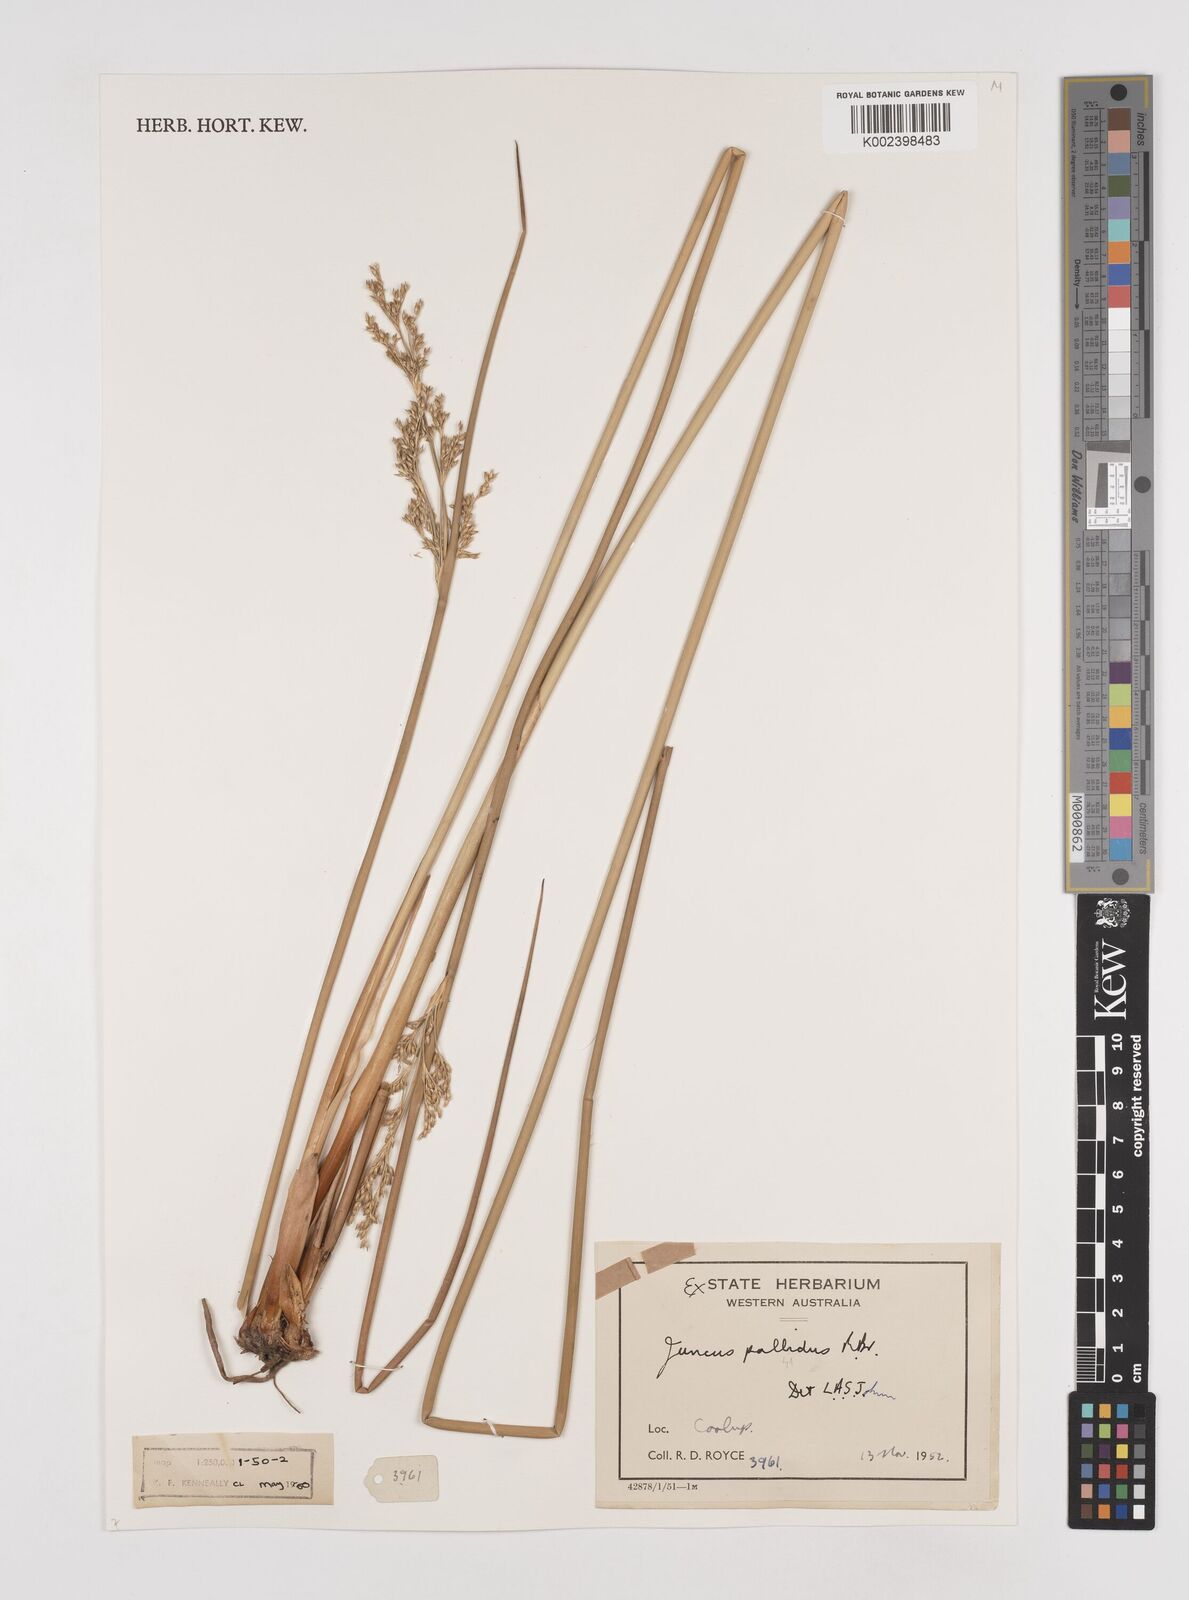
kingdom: Plantae
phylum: Tracheophyta
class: Liliopsida
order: Poales
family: Juncaceae
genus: Juncus
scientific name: Juncus pallidus
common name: Great soft-rush
